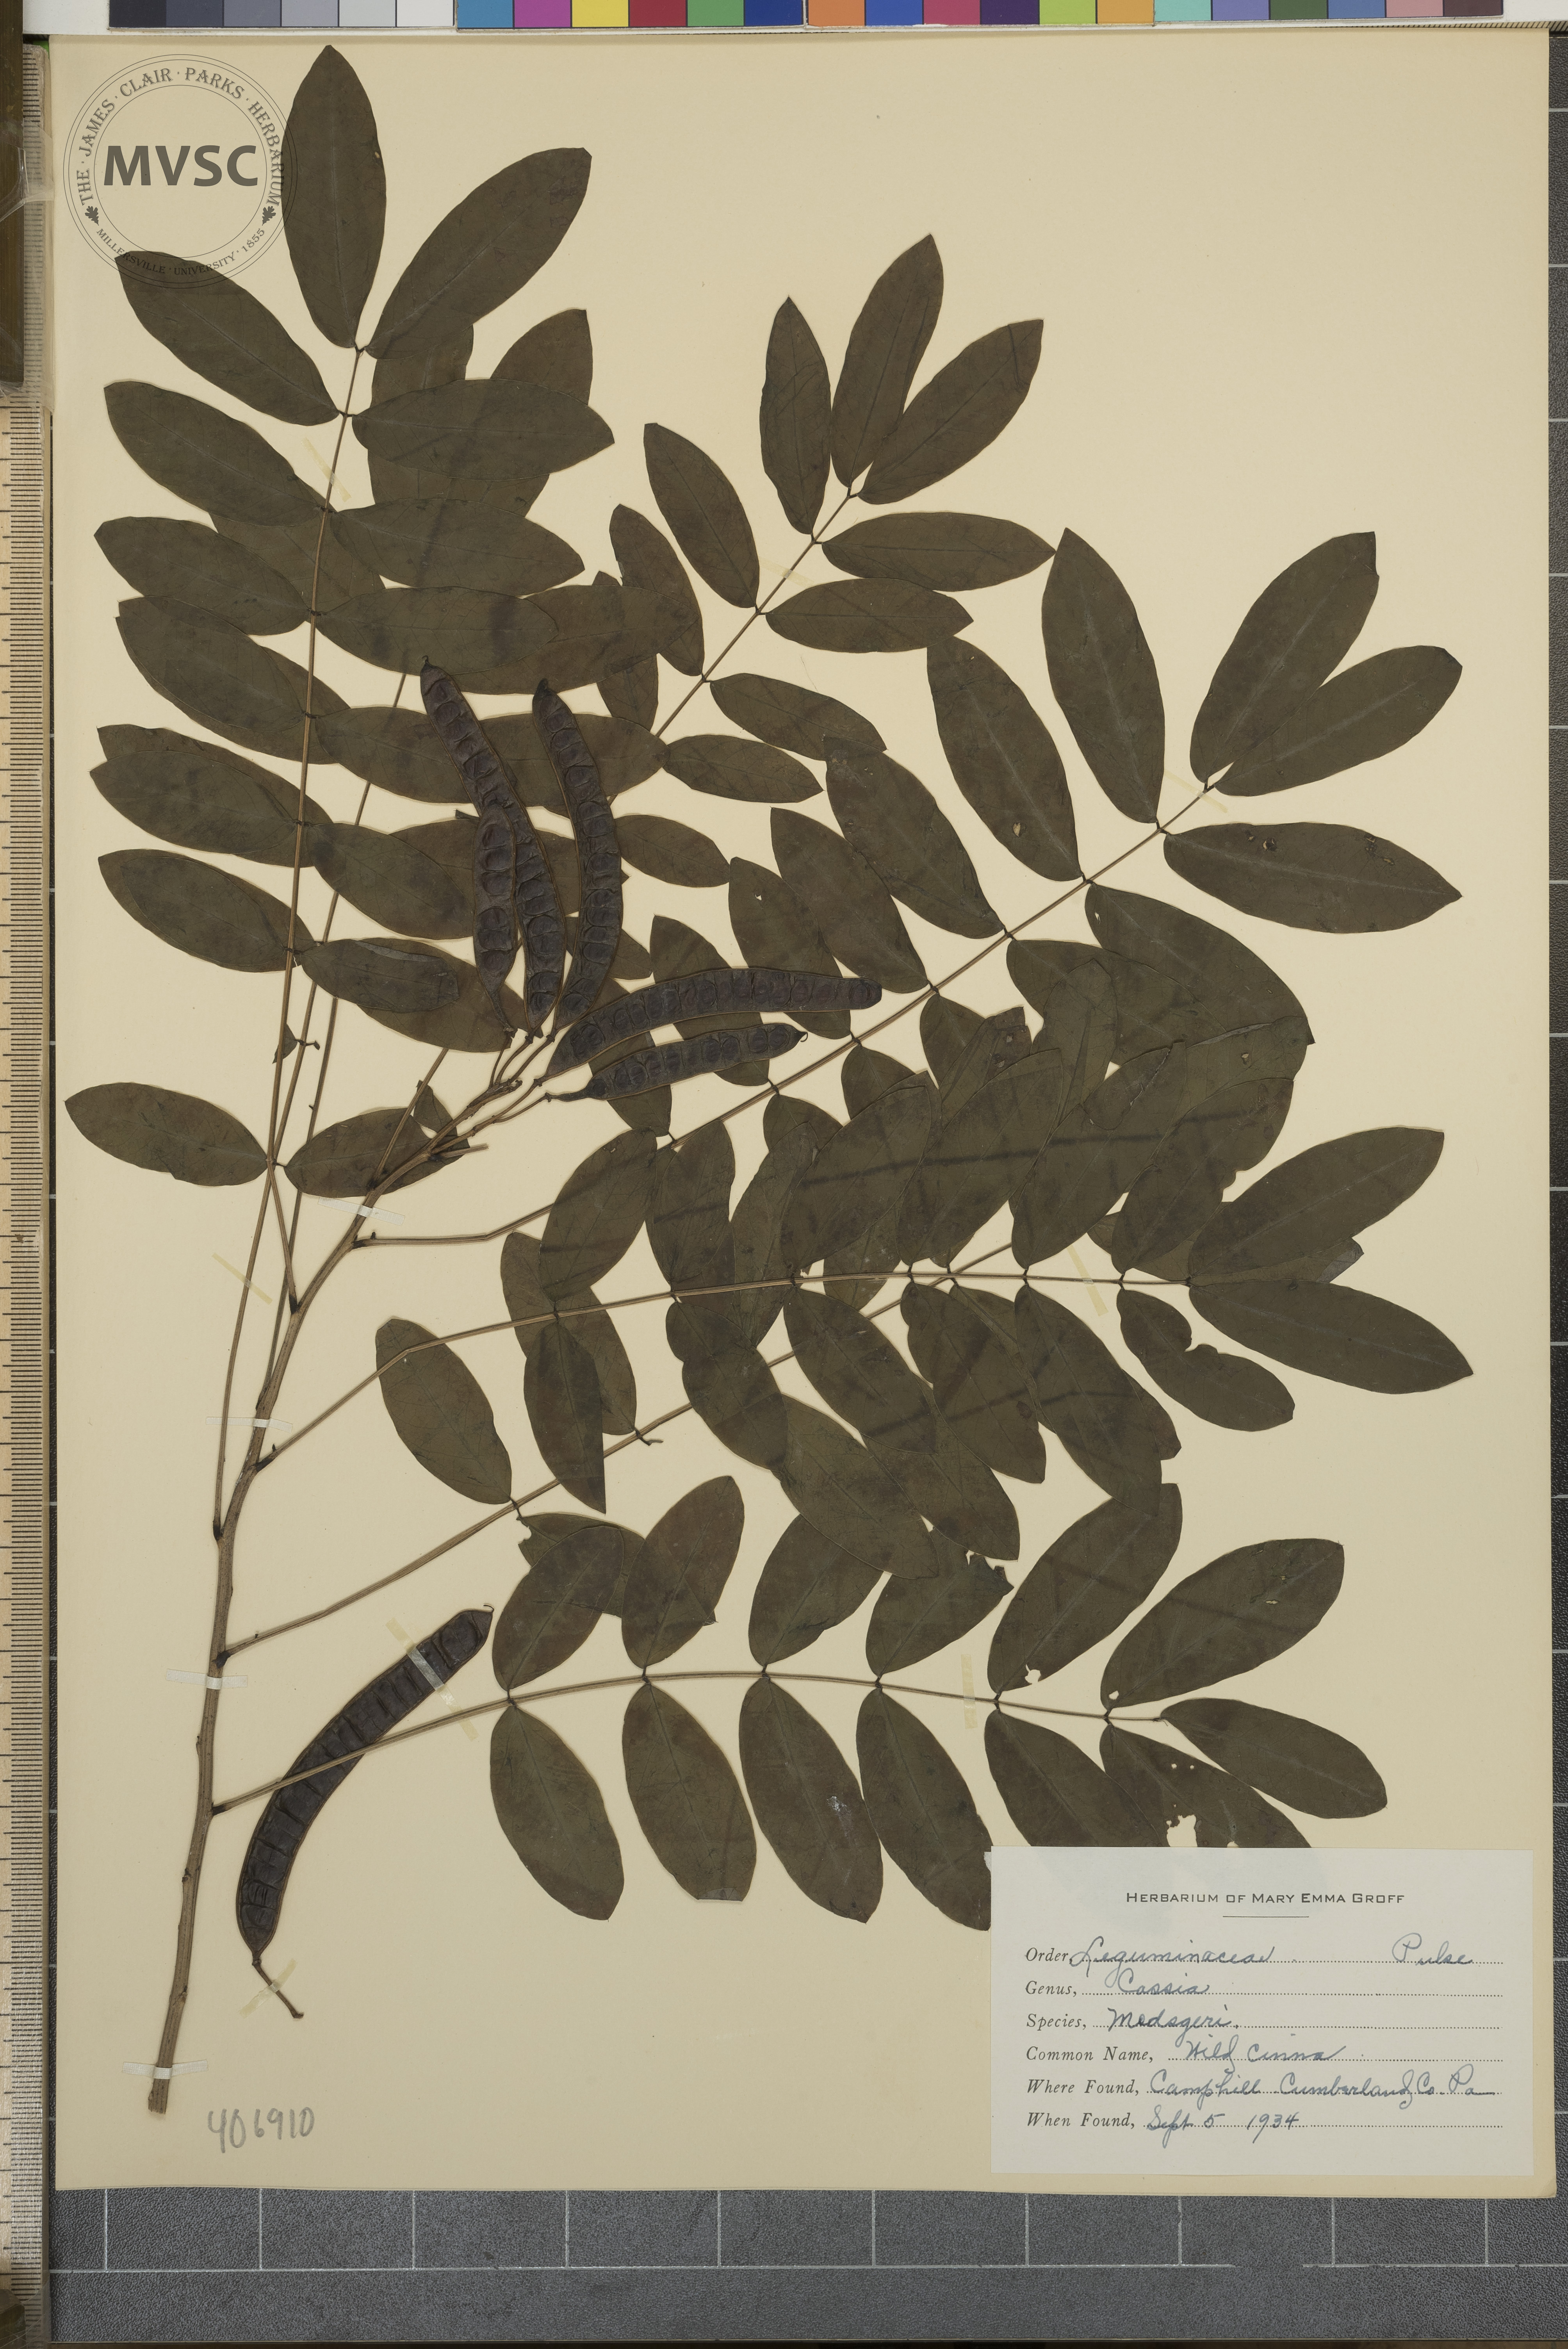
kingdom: Plantae
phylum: Tracheophyta
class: Magnoliopsida
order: Fabales
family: Fabaceae
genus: Senna
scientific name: Senna marilandica
